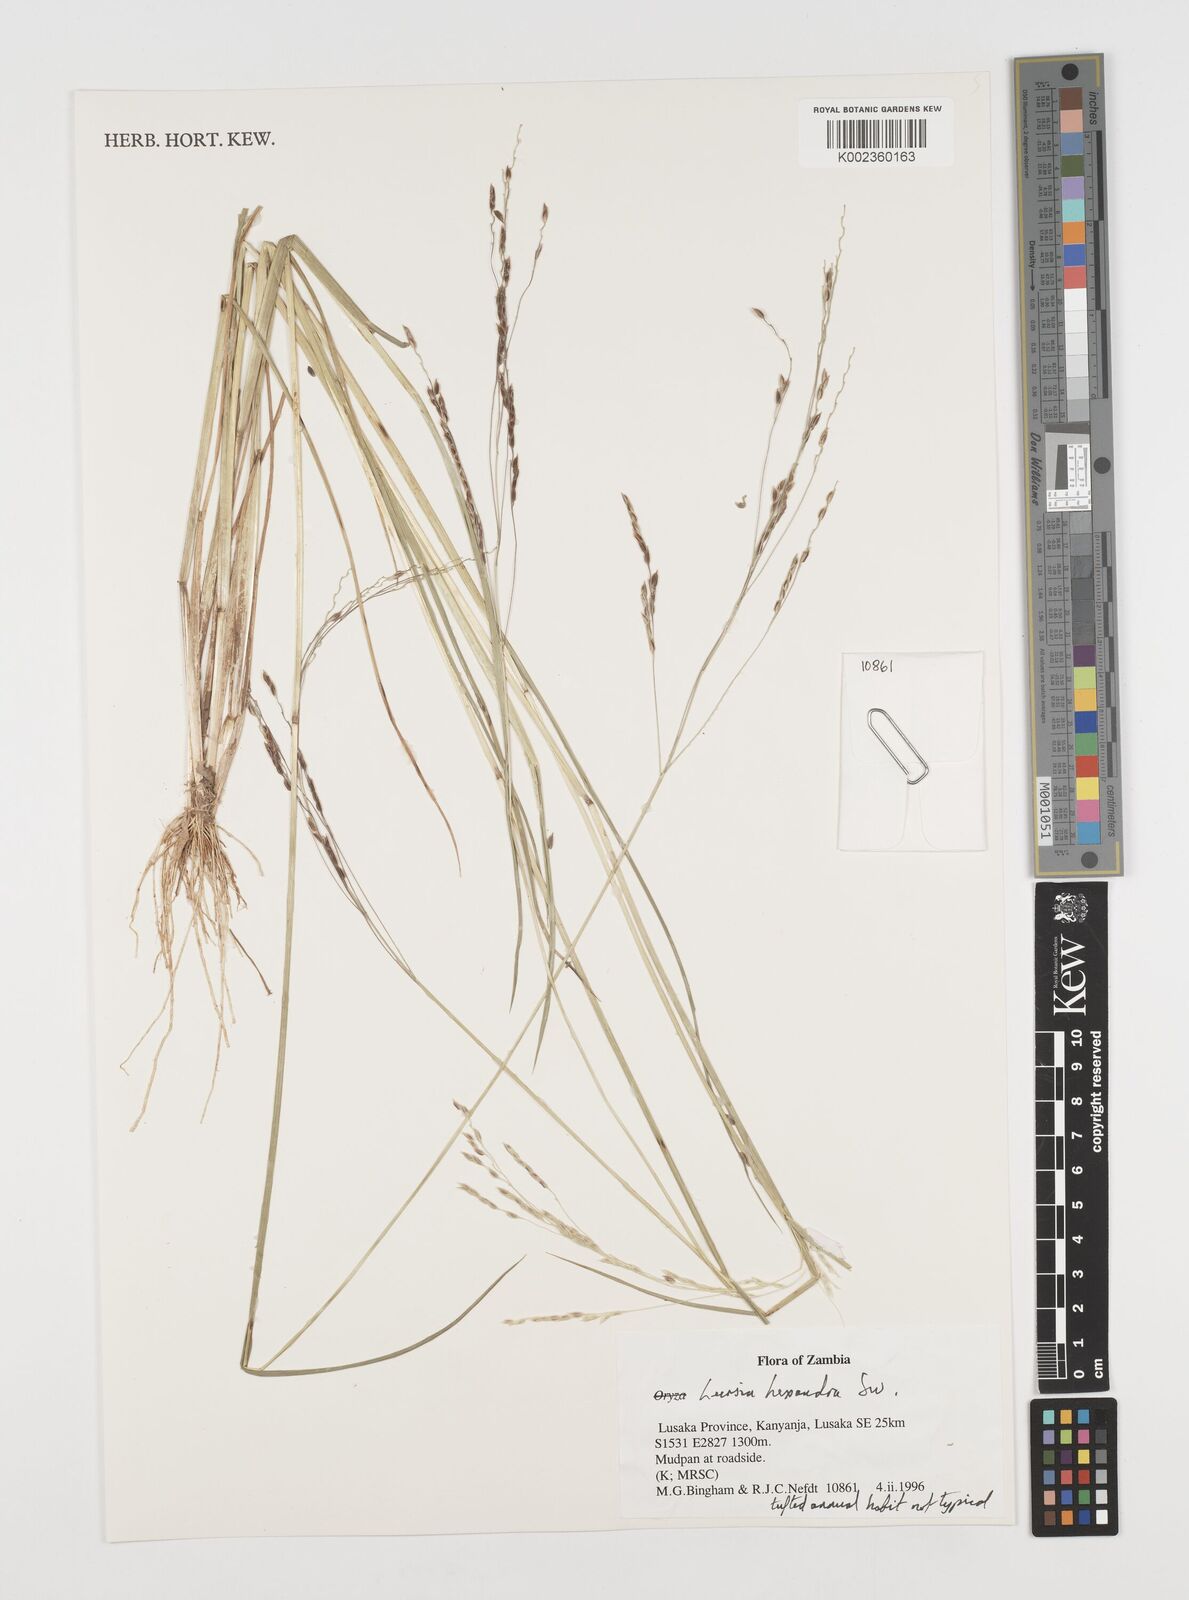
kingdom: Plantae
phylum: Tracheophyta
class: Liliopsida
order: Poales
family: Poaceae
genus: Leersia
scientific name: Leersia hexandra
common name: Southern cut grass
